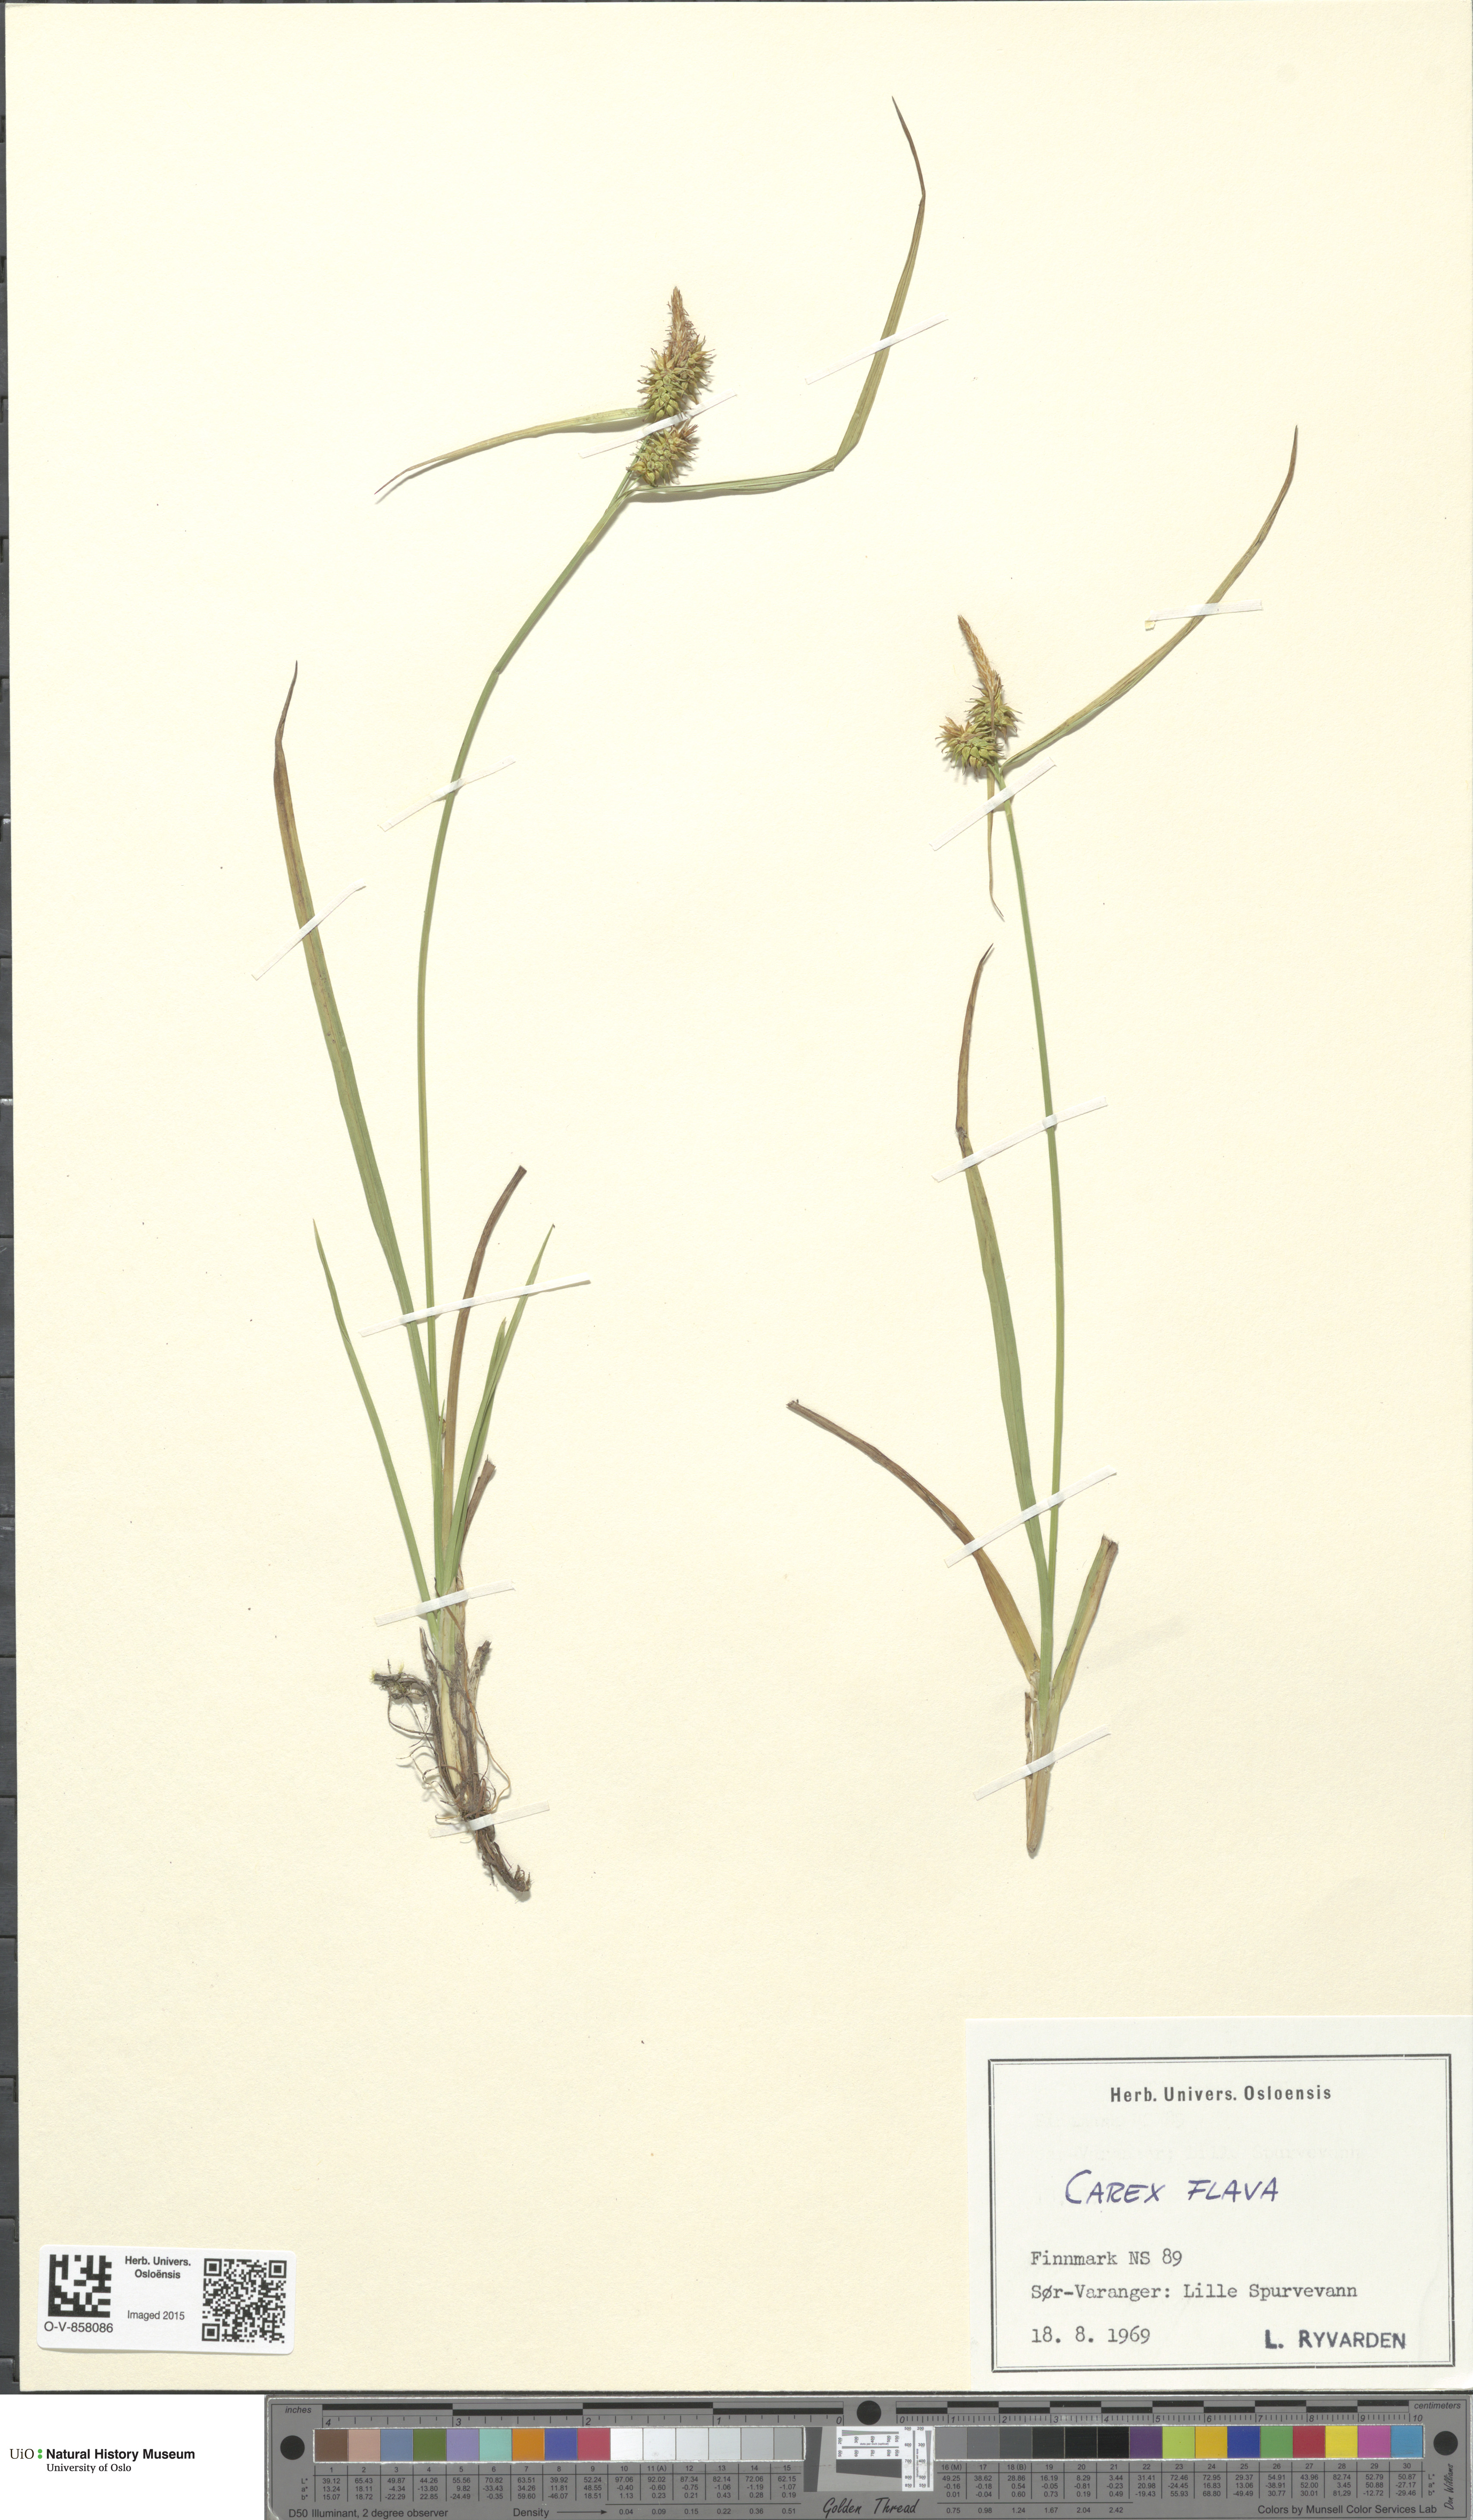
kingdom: Plantae
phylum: Tracheophyta
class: Liliopsida
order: Poales
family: Cyperaceae
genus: Carex
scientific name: Carex flava
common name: Large yellow-sedge
